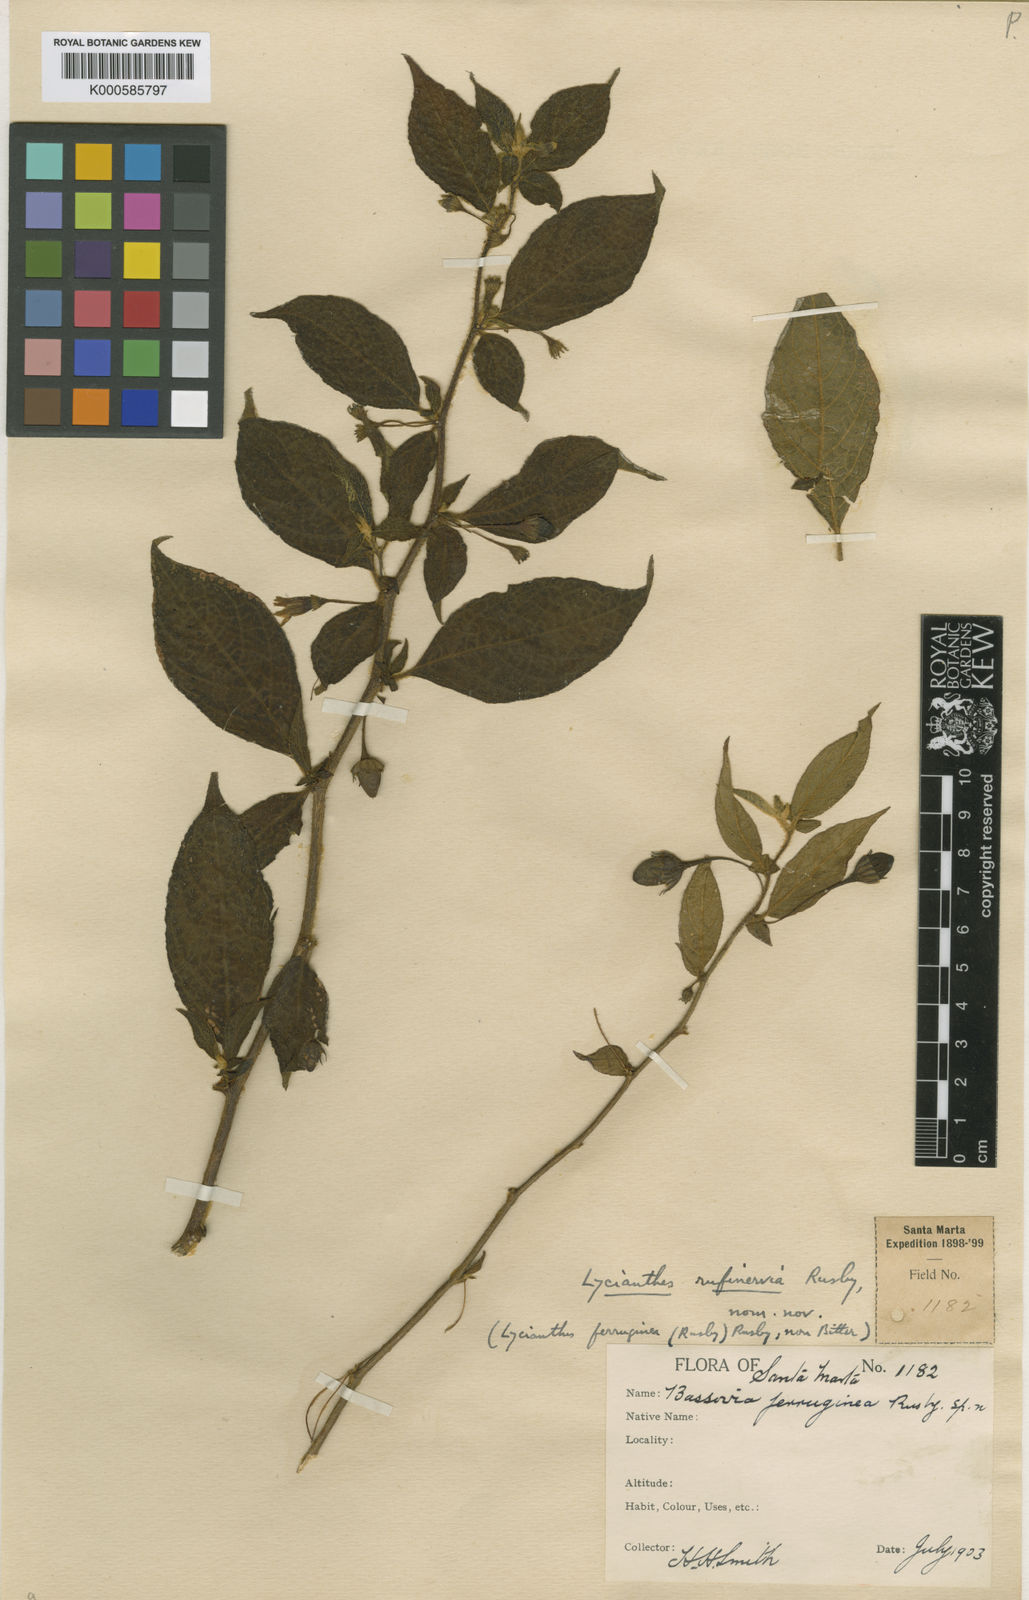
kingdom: Plantae
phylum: Tracheophyta
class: Magnoliopsida
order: Solanales
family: Solanaceae
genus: Lycianthes
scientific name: Lycianthes ferruginea
